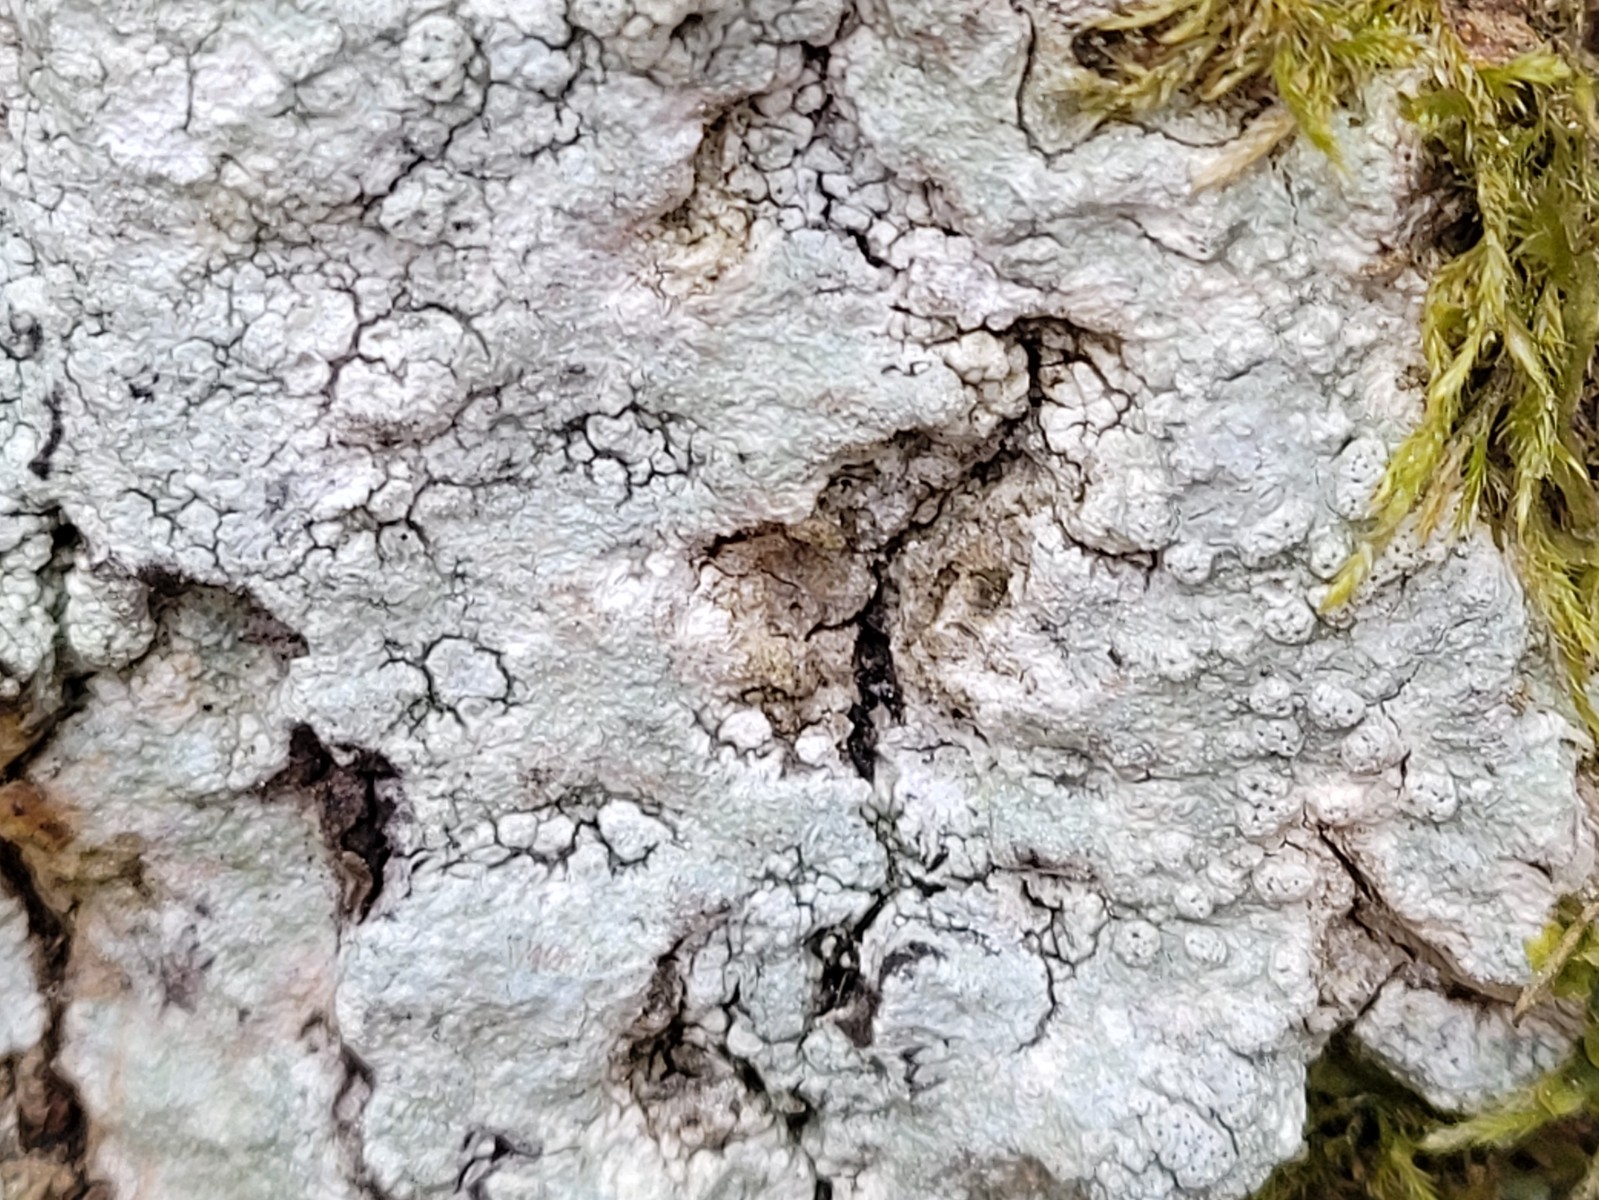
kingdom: Fungi
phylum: Ascomycota
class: Lecanoromycetes
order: Pertusariales
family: Pertusariaceae
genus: Pertusaria
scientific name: Pertusaria pertusa
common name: almindelig prikvortelav
